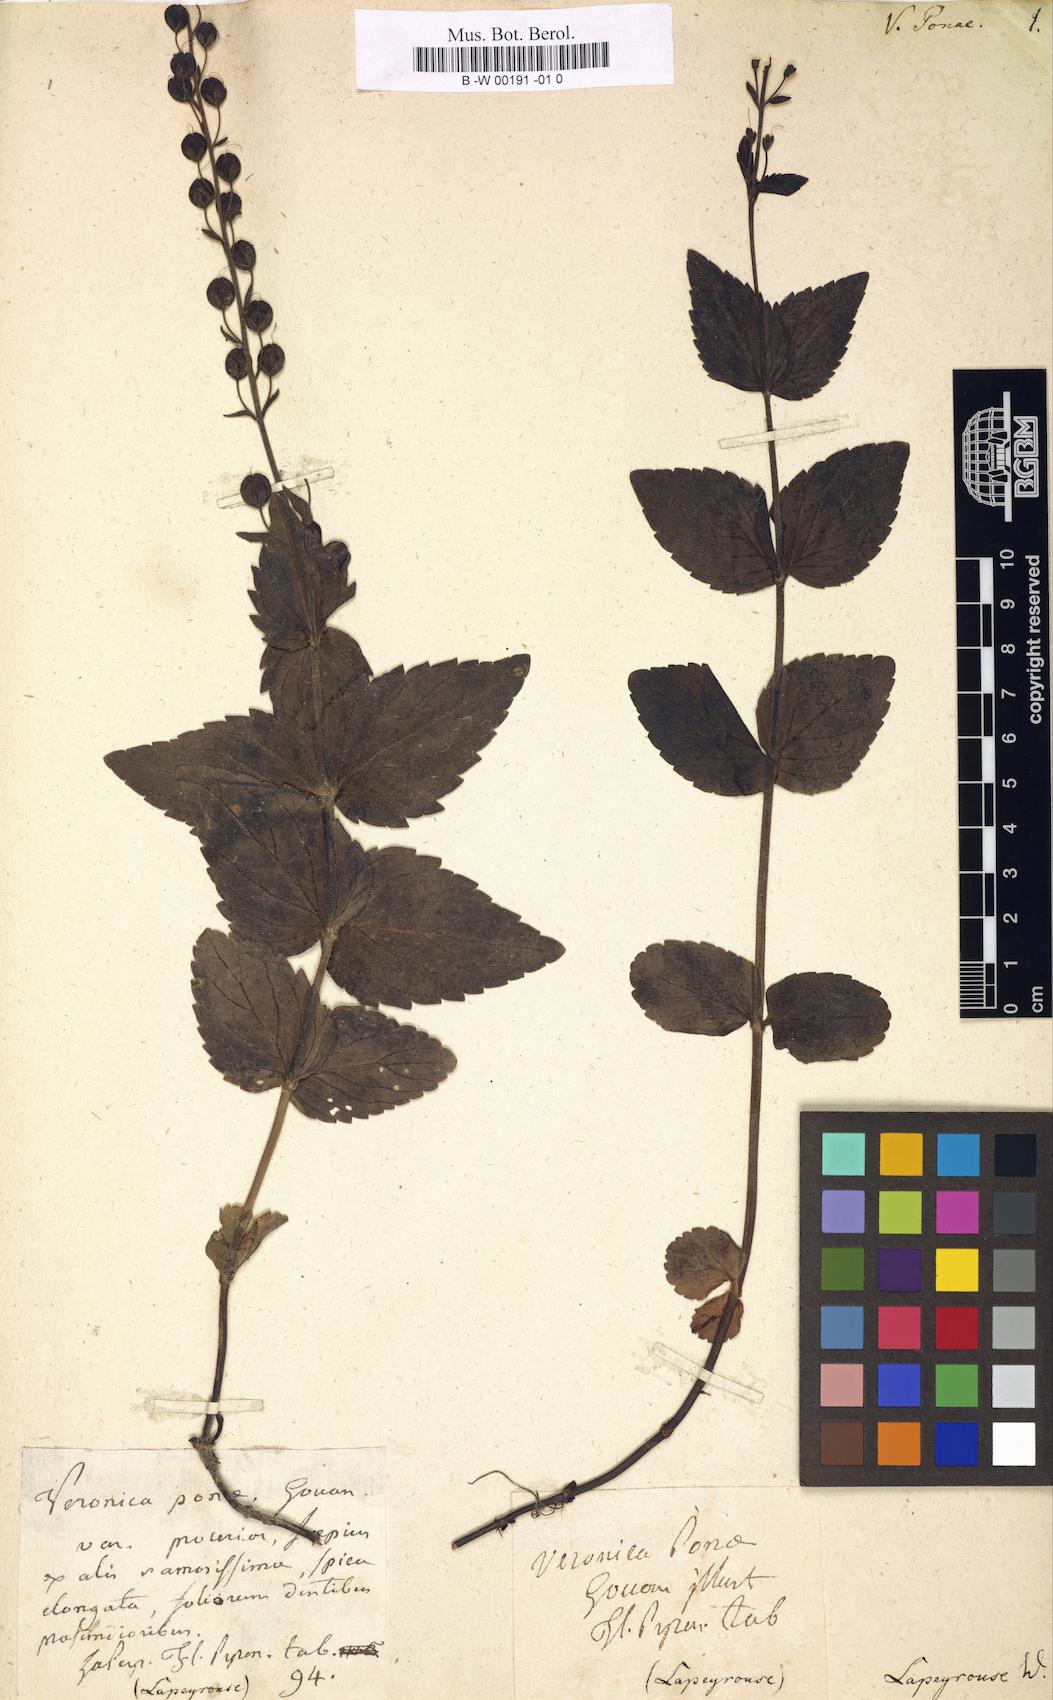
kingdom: Plantae
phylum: Tracheophyta
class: Magnoliopsida
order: Lamiales
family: Plantaginaceae
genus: Veronica
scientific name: Veronica ponae
